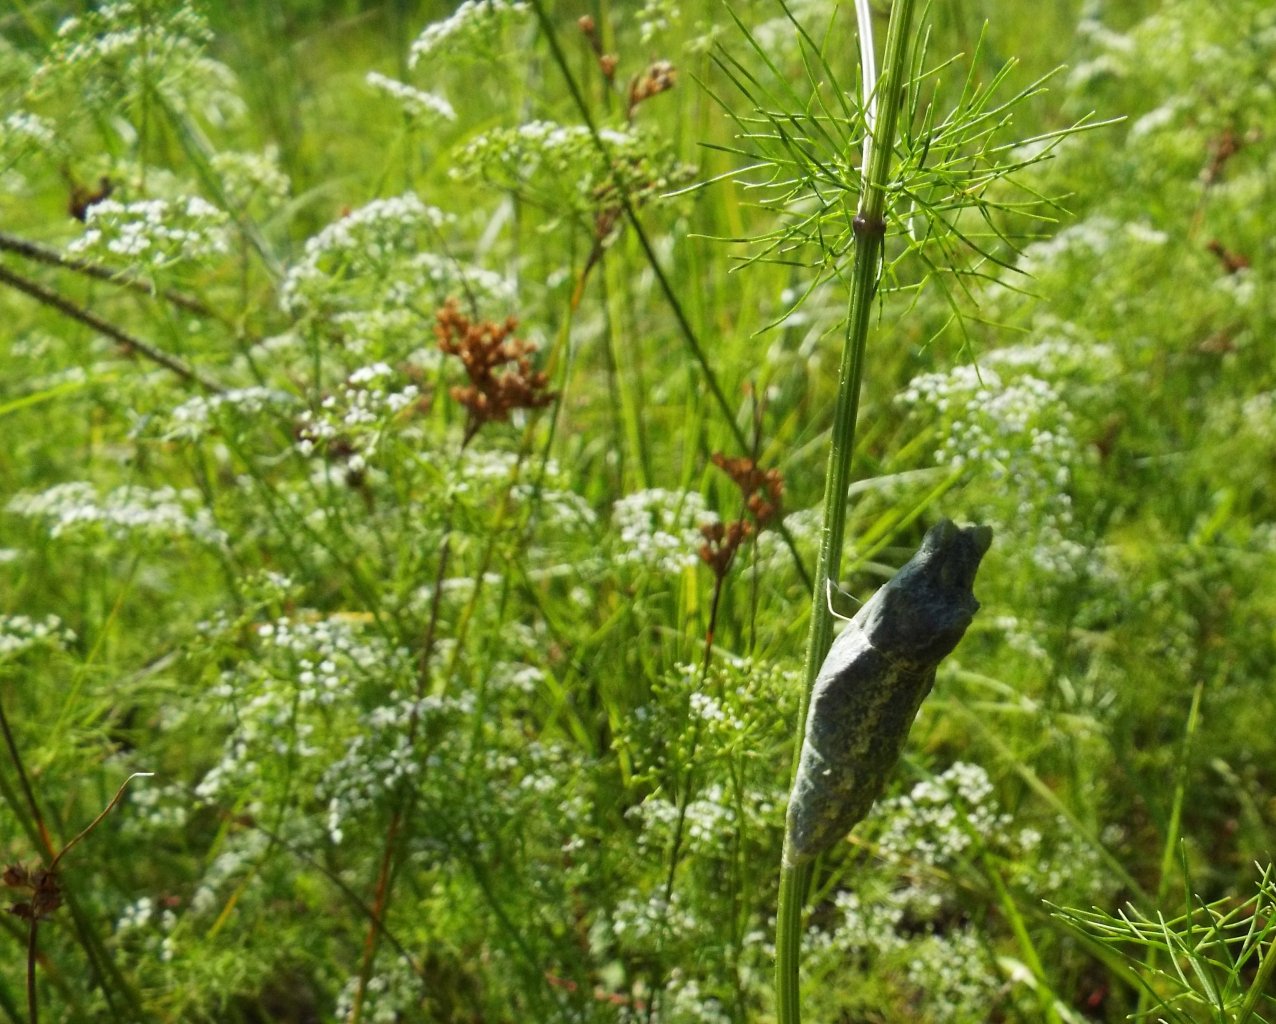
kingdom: Animalia
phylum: Arthropoda
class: Insecta
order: Lepidoptera
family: Papilionidae
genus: Papilio
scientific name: Papilio polyxenes
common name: Black Swallowtail
